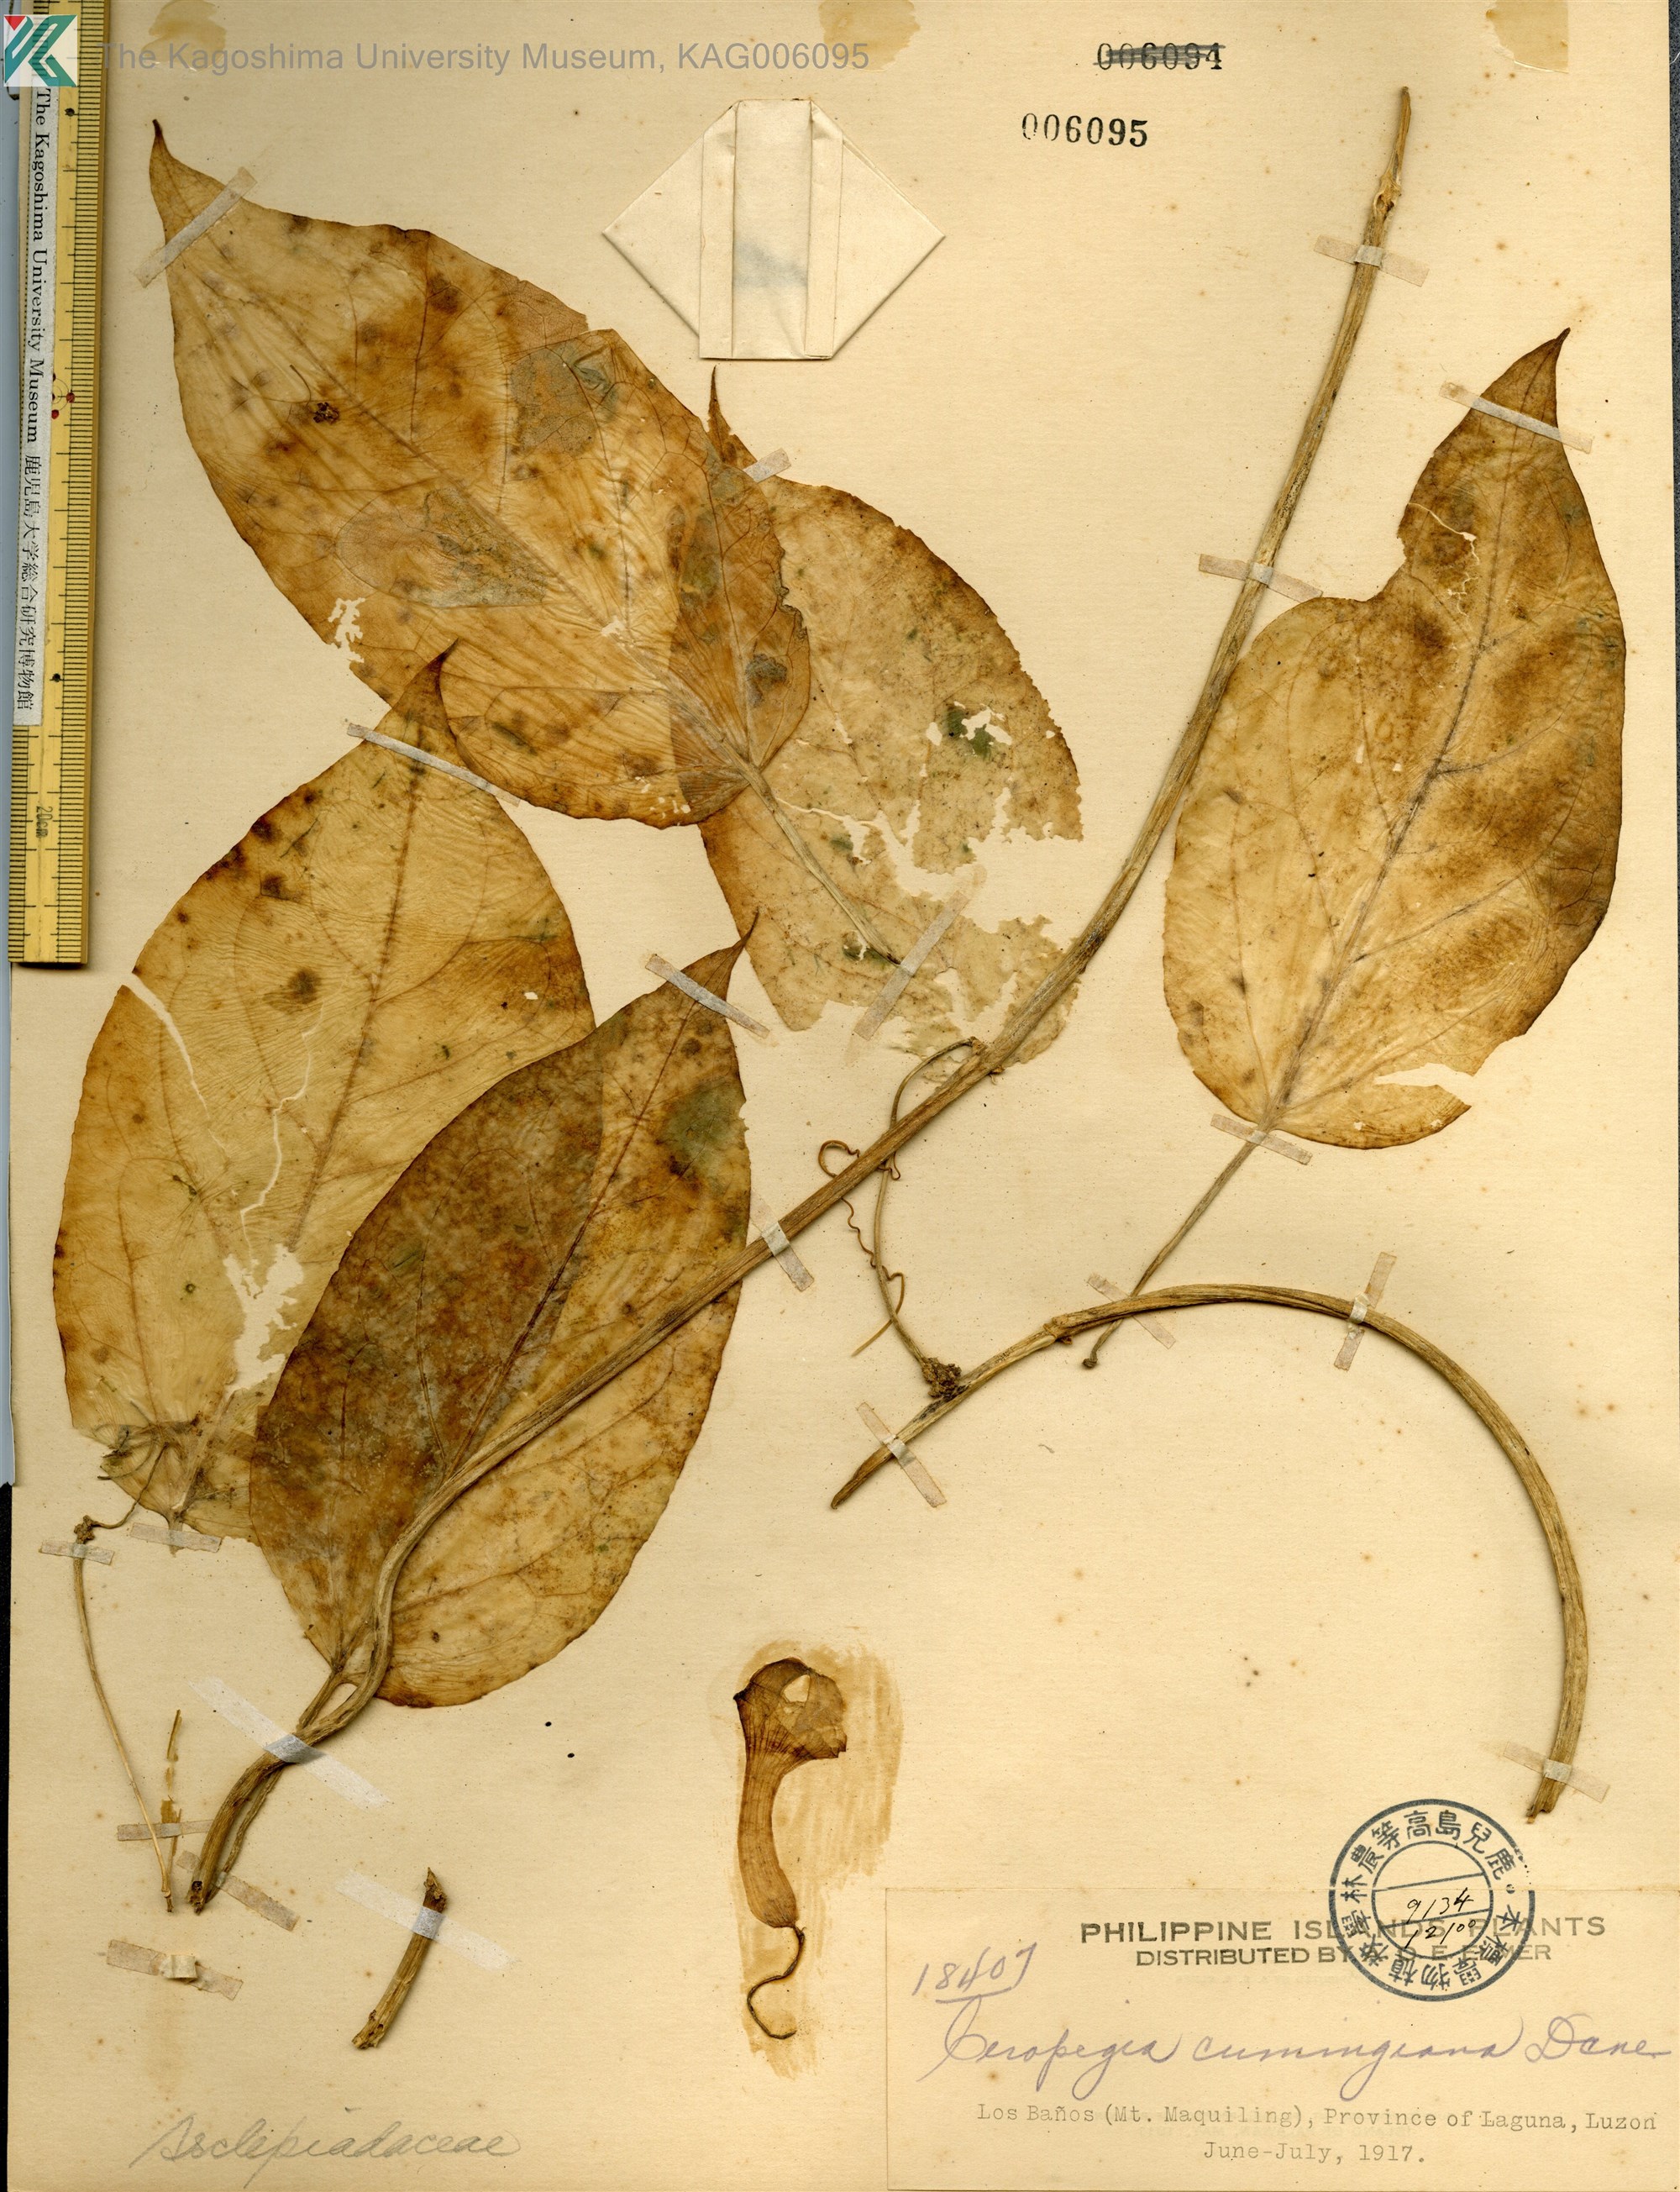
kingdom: Plantae
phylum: Tracheophyta
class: Magnoliopsida
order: Gentianales
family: Apocynaceae
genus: Ceropegia
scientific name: Ceropegia cumingiana
